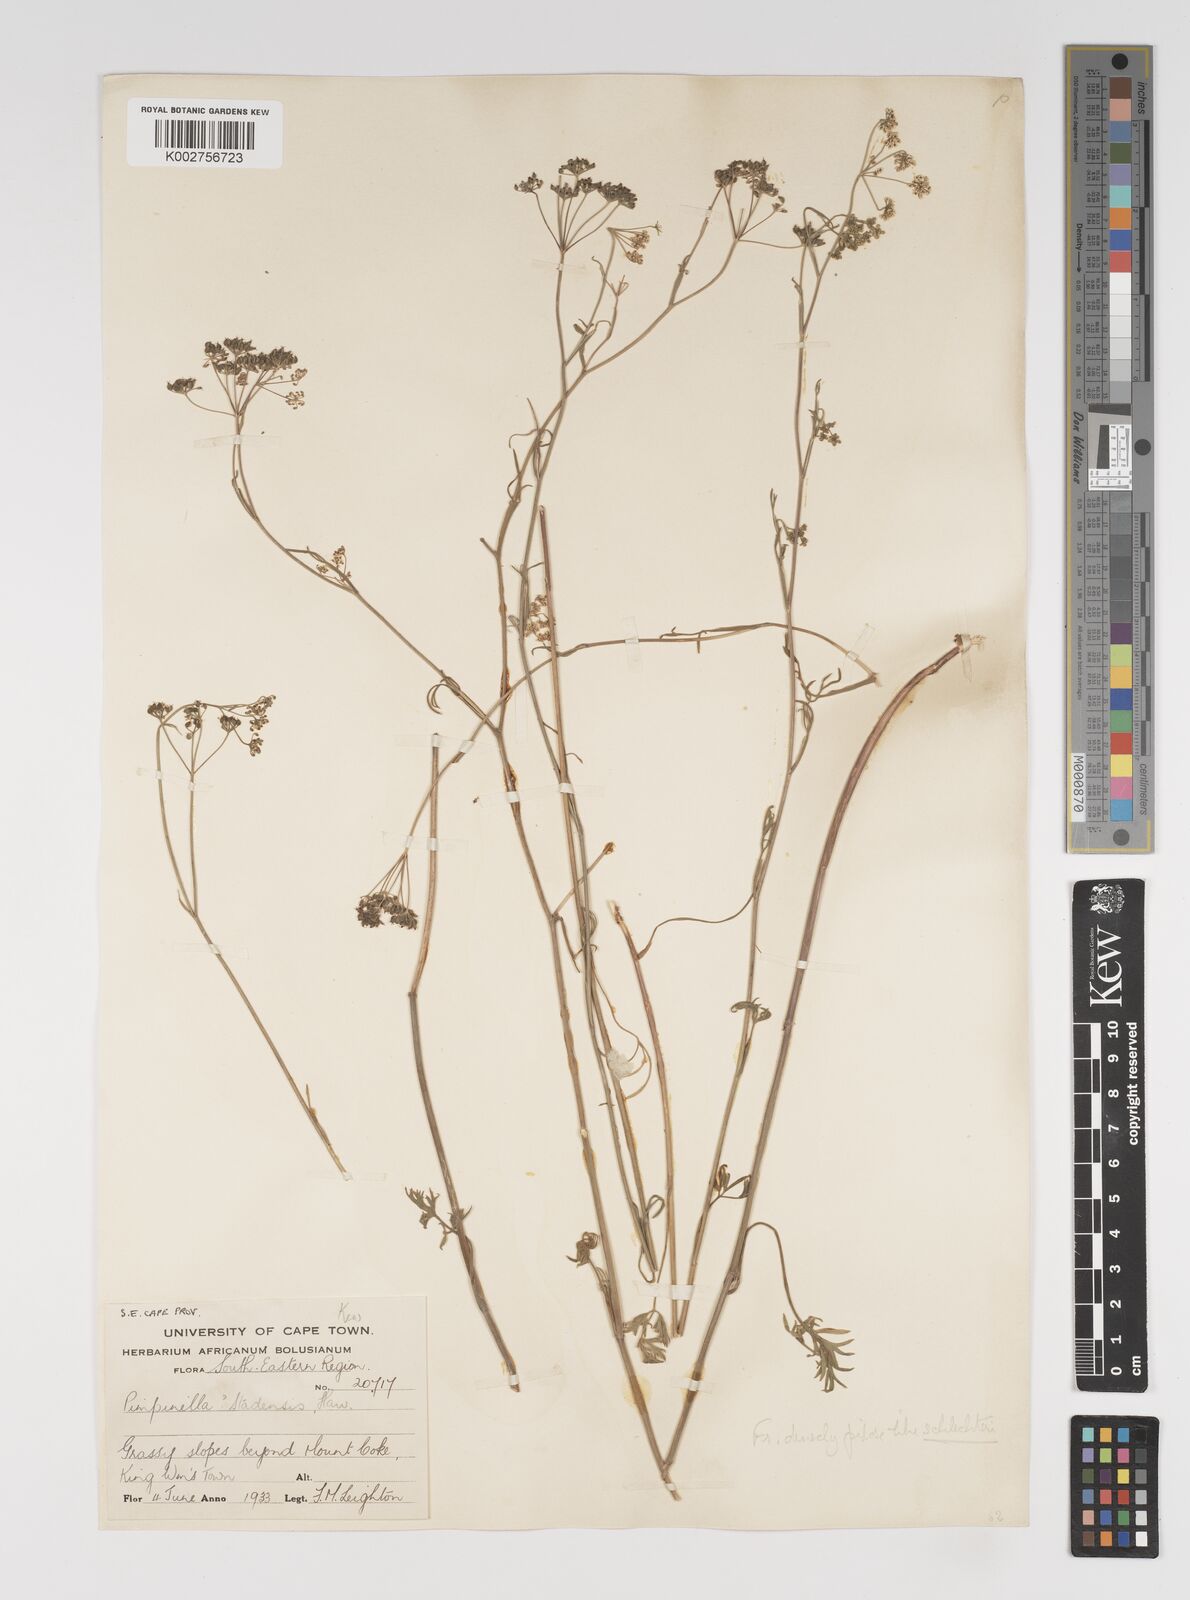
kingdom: Plantae
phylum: Tracheophyta
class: Magnoliopsida
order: Apiales
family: Apiaceae
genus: Pimpinella
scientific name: Pimpinella caffra
